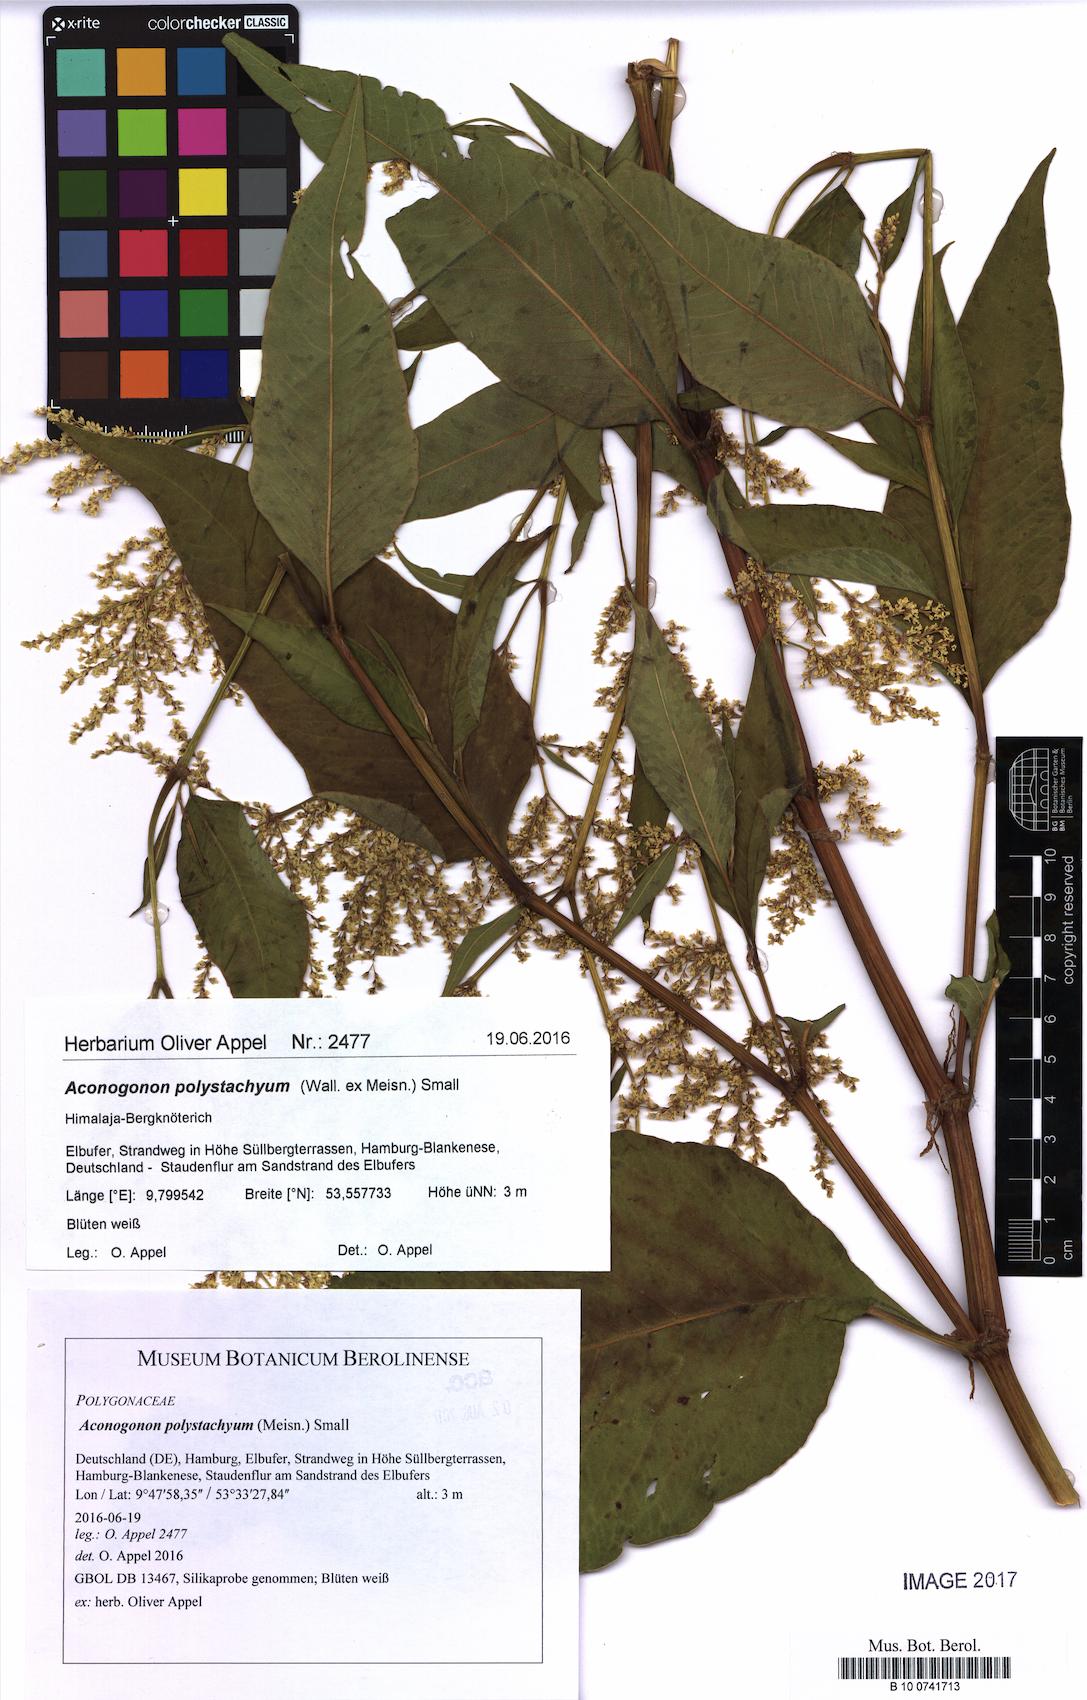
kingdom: Plantae
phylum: Tracheophyta
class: Magnoliopsida
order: Caryophyllales
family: Polygonaceae
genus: Koenigia
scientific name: Koenigia Aconogonon polystachyum
